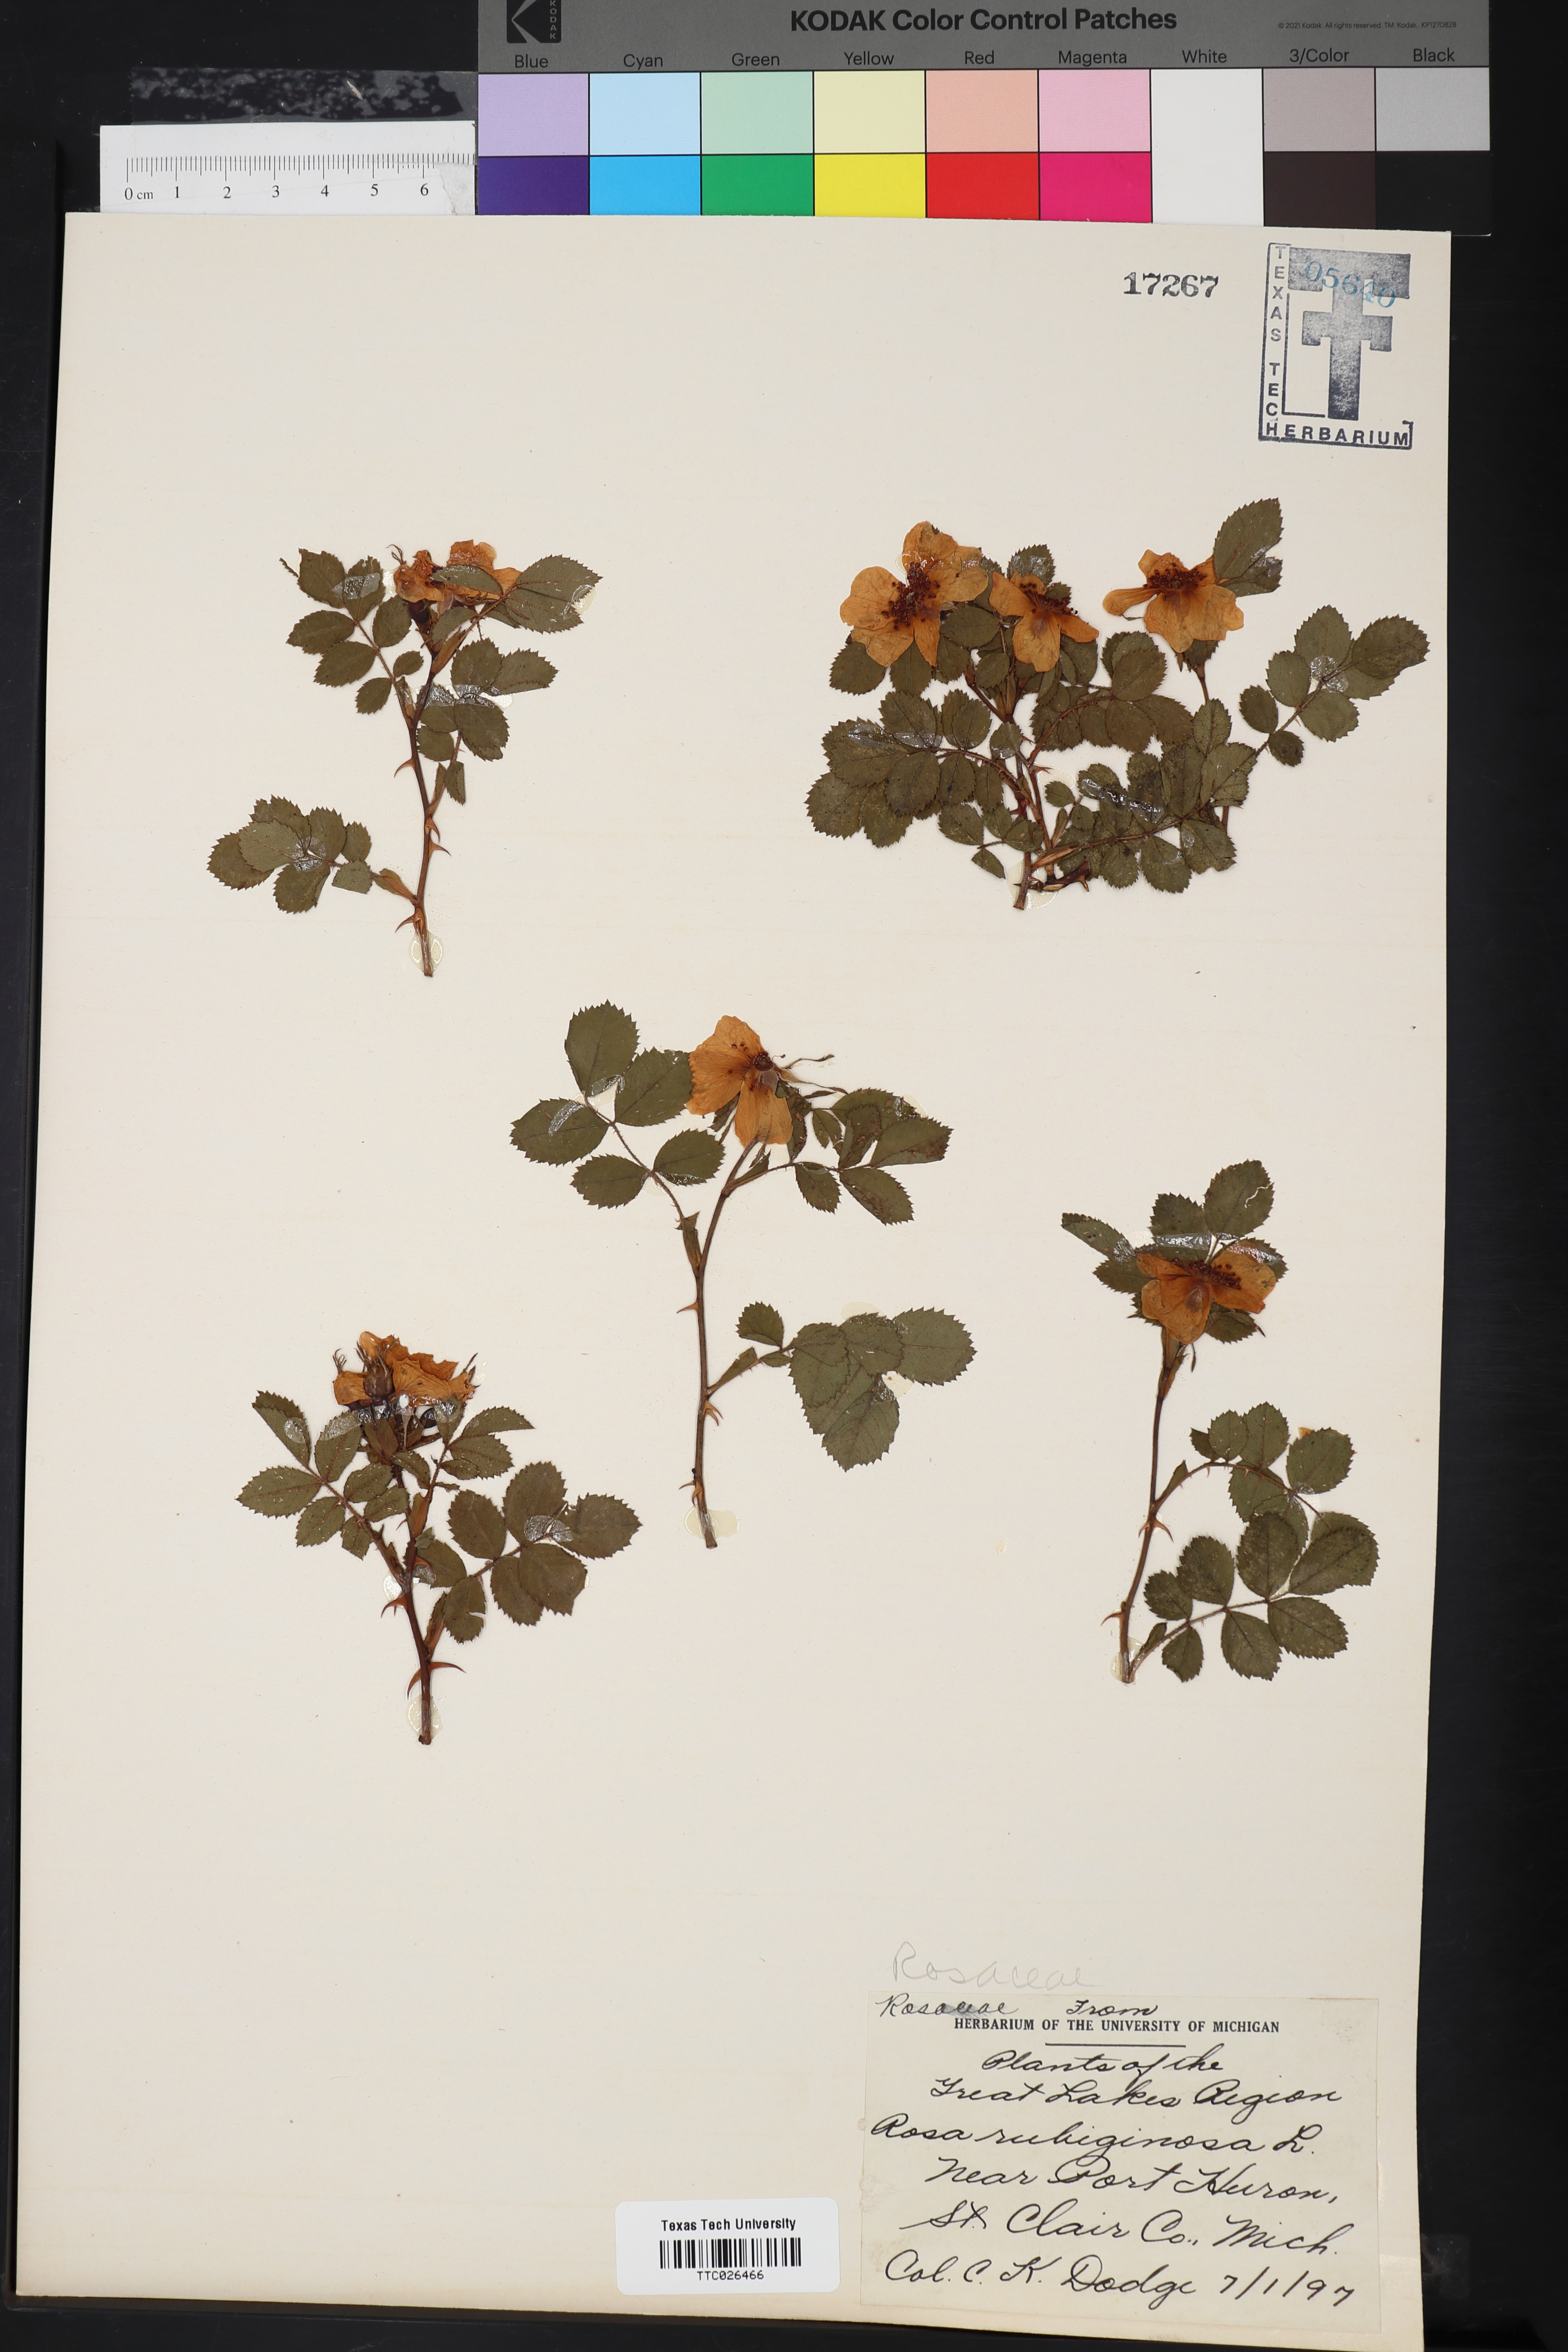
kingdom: Plantae
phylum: Tracheophyta
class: Magnoliopsida
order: Rosales
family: Rosaceae
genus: Rosa
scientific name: Rosa rubiginosa
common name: Sweet-briar
